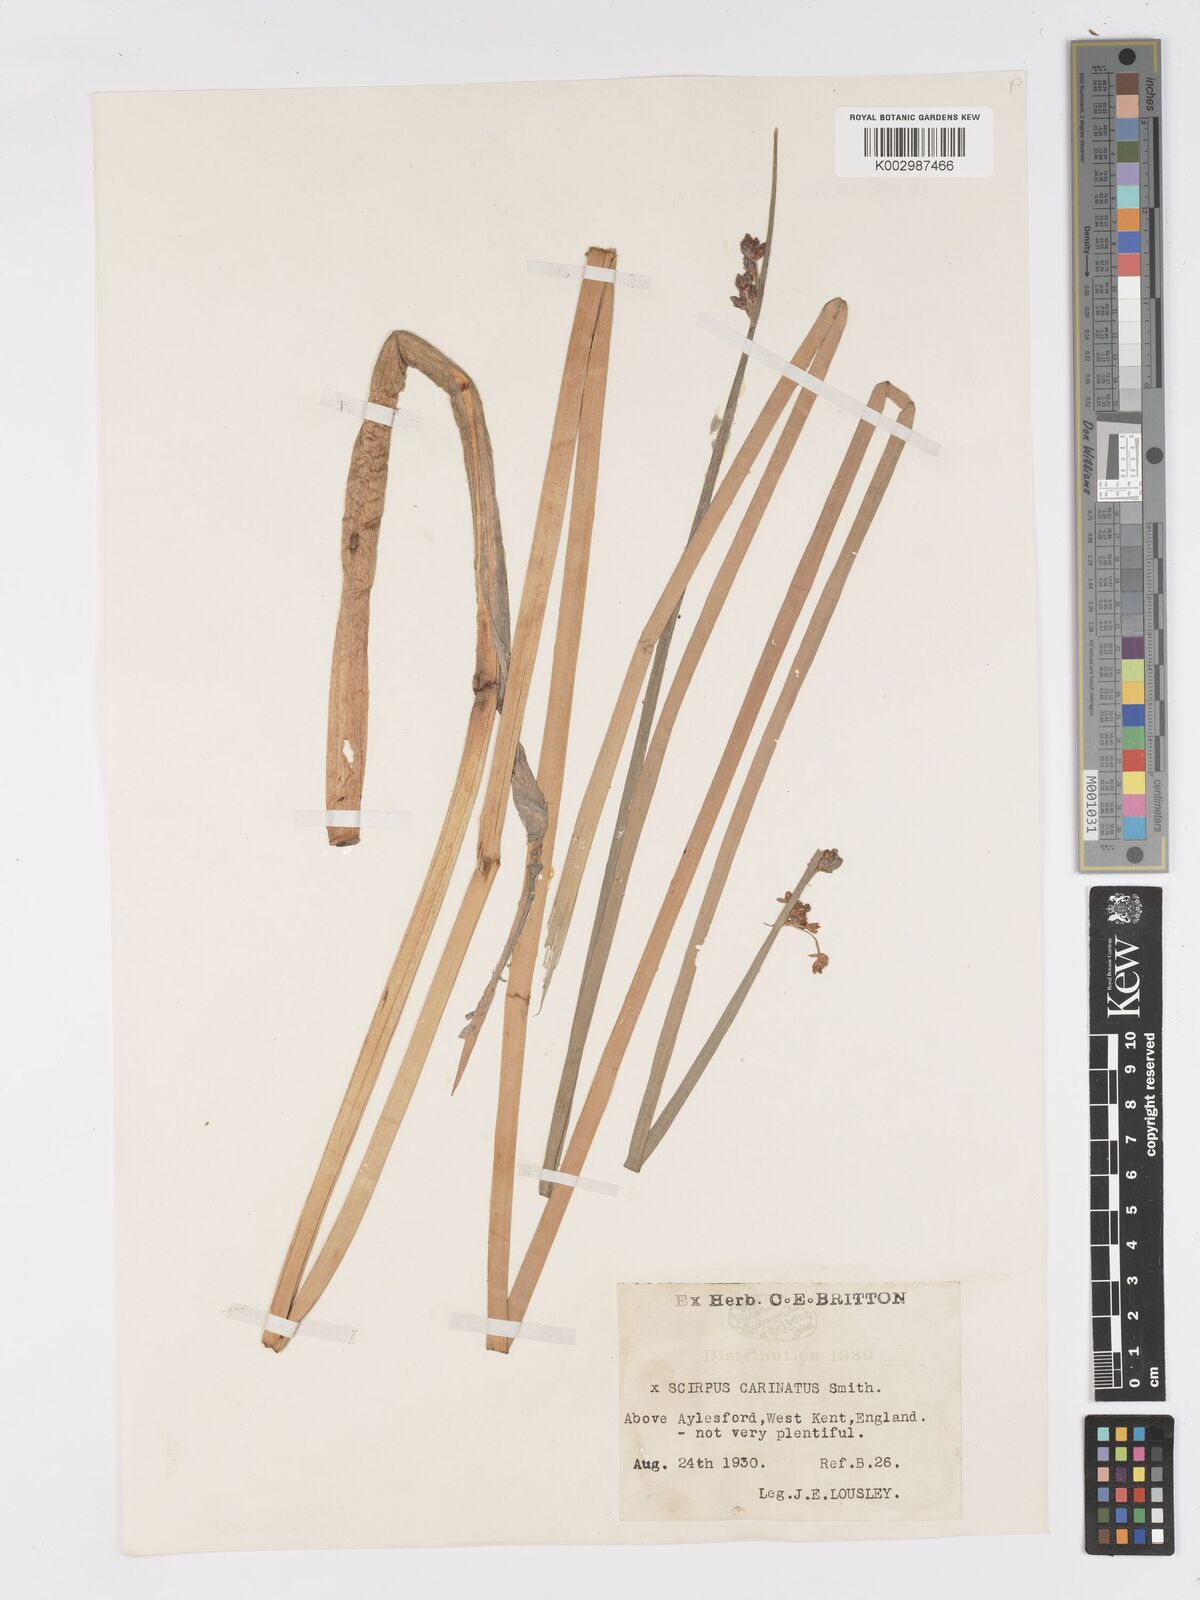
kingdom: Plantae
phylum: Tracheophyta
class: Liliopsida
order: Poales
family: Cyperaceae
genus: Schoenoplectus
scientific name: Schoenoplectus carinatus
